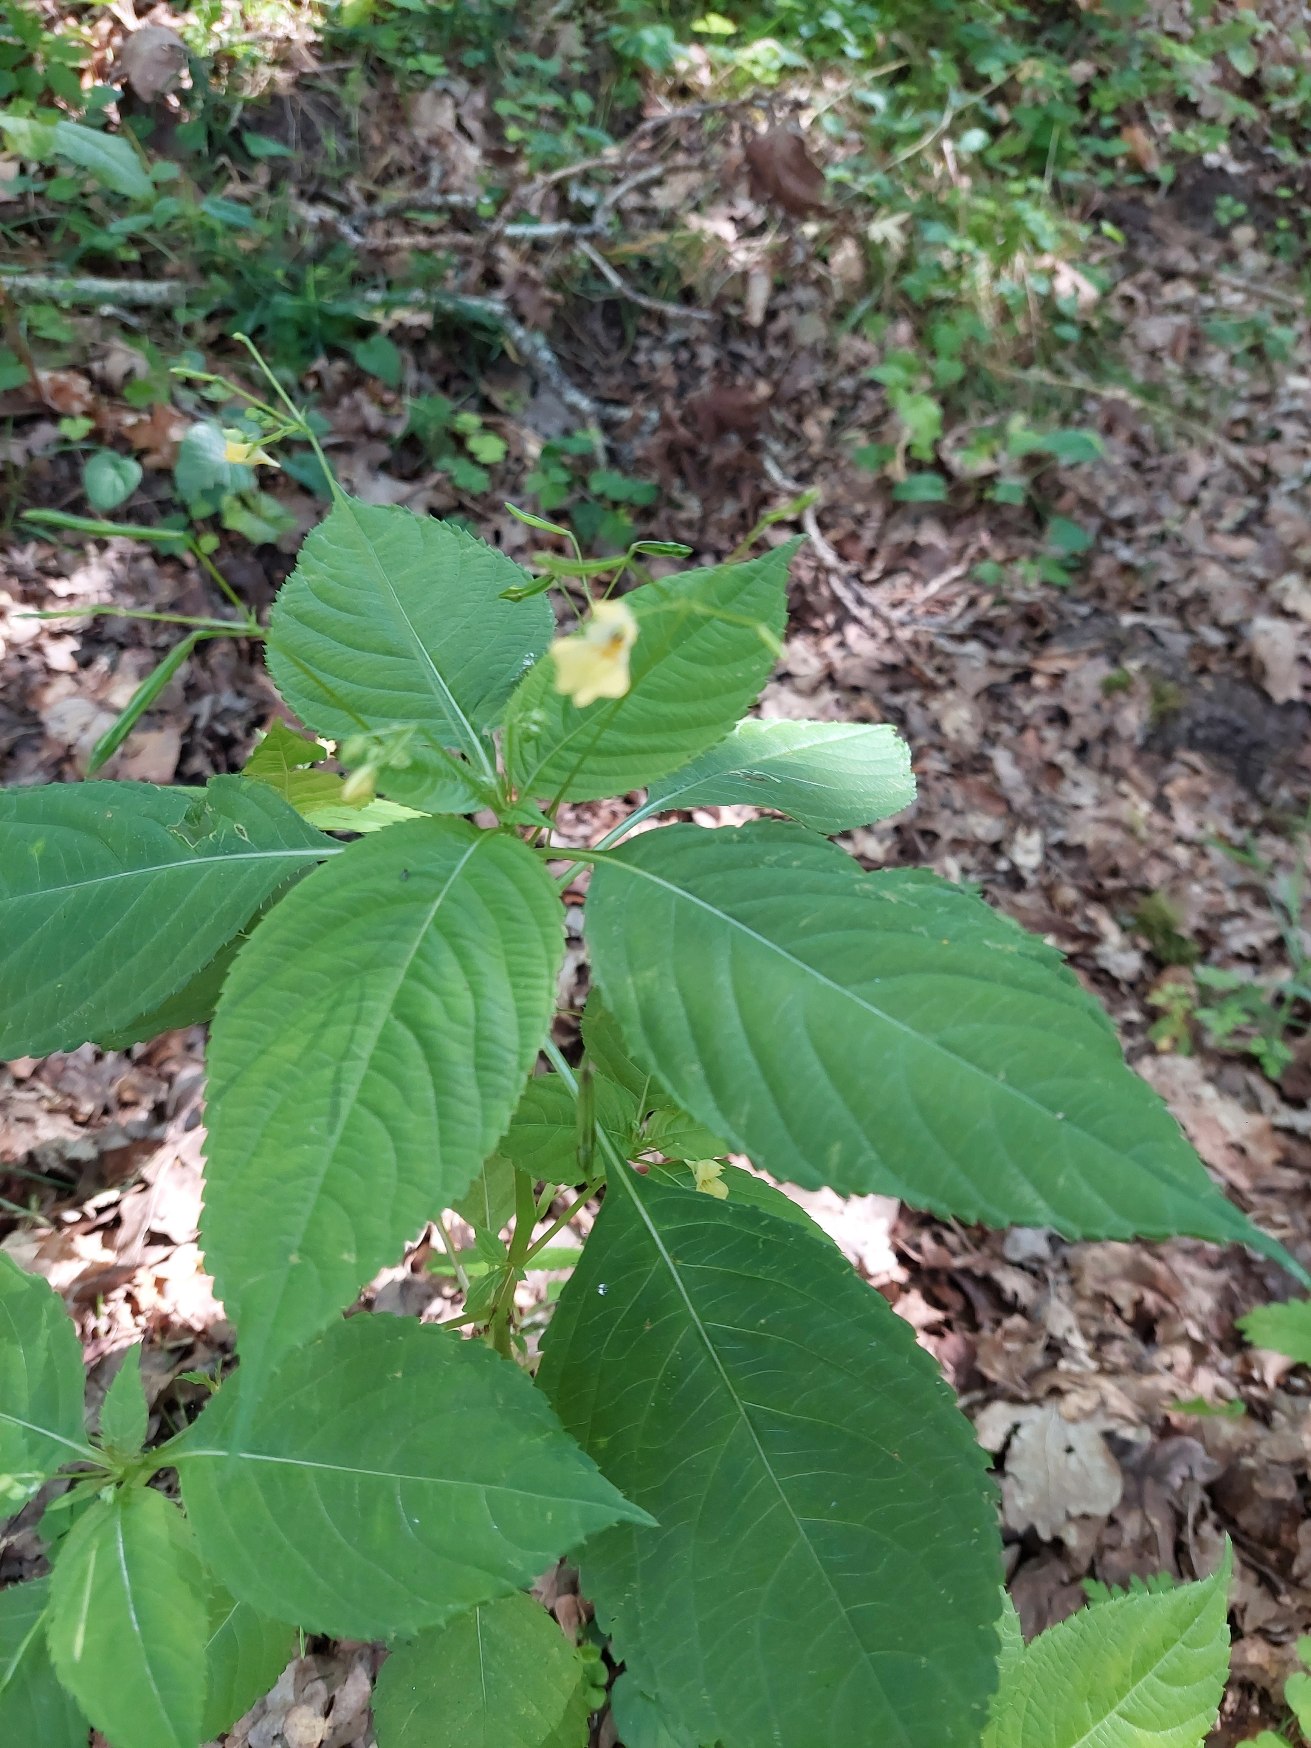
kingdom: Plantae
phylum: Tracheophyta
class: Magnoliopsida
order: Ericales
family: Balsaminaceae
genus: Impatiens
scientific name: Impatiens parviflora
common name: Småblomstret balsamin
